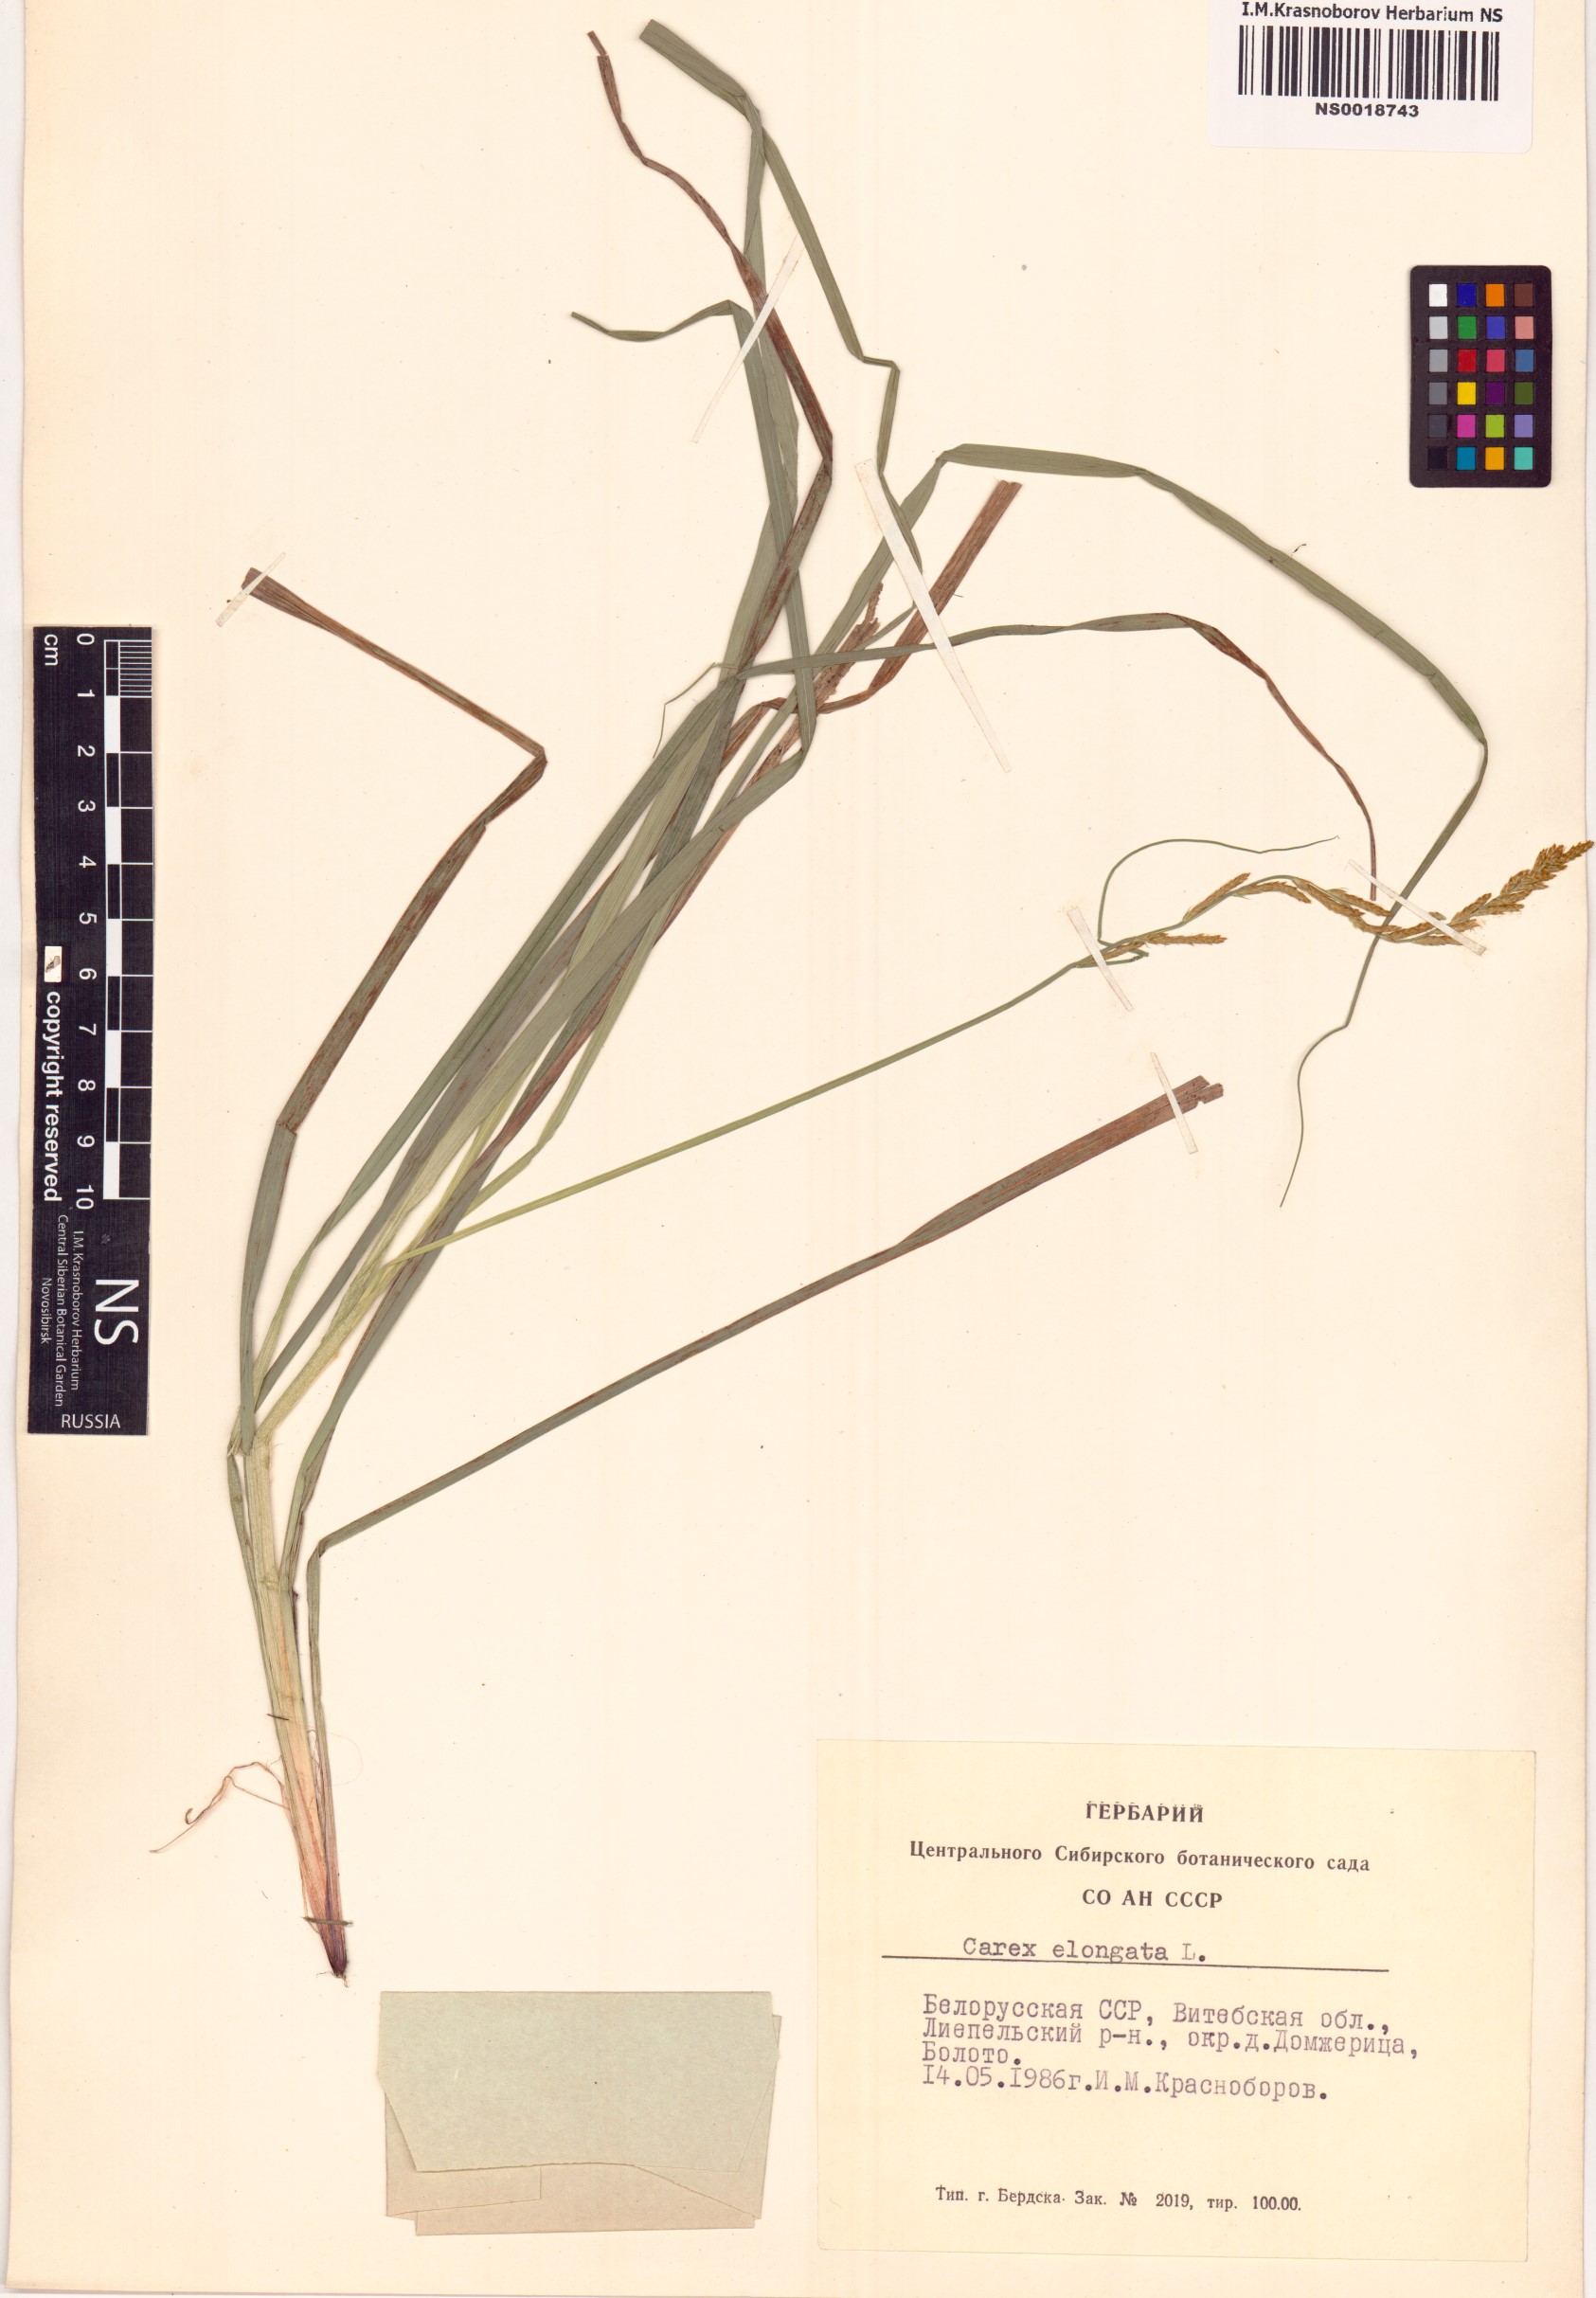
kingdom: Plantae
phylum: Tracheophyta
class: Liliopsida
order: Poales
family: Cyperaceae
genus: Carex
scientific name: Carex elongata
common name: Elongated sedge
